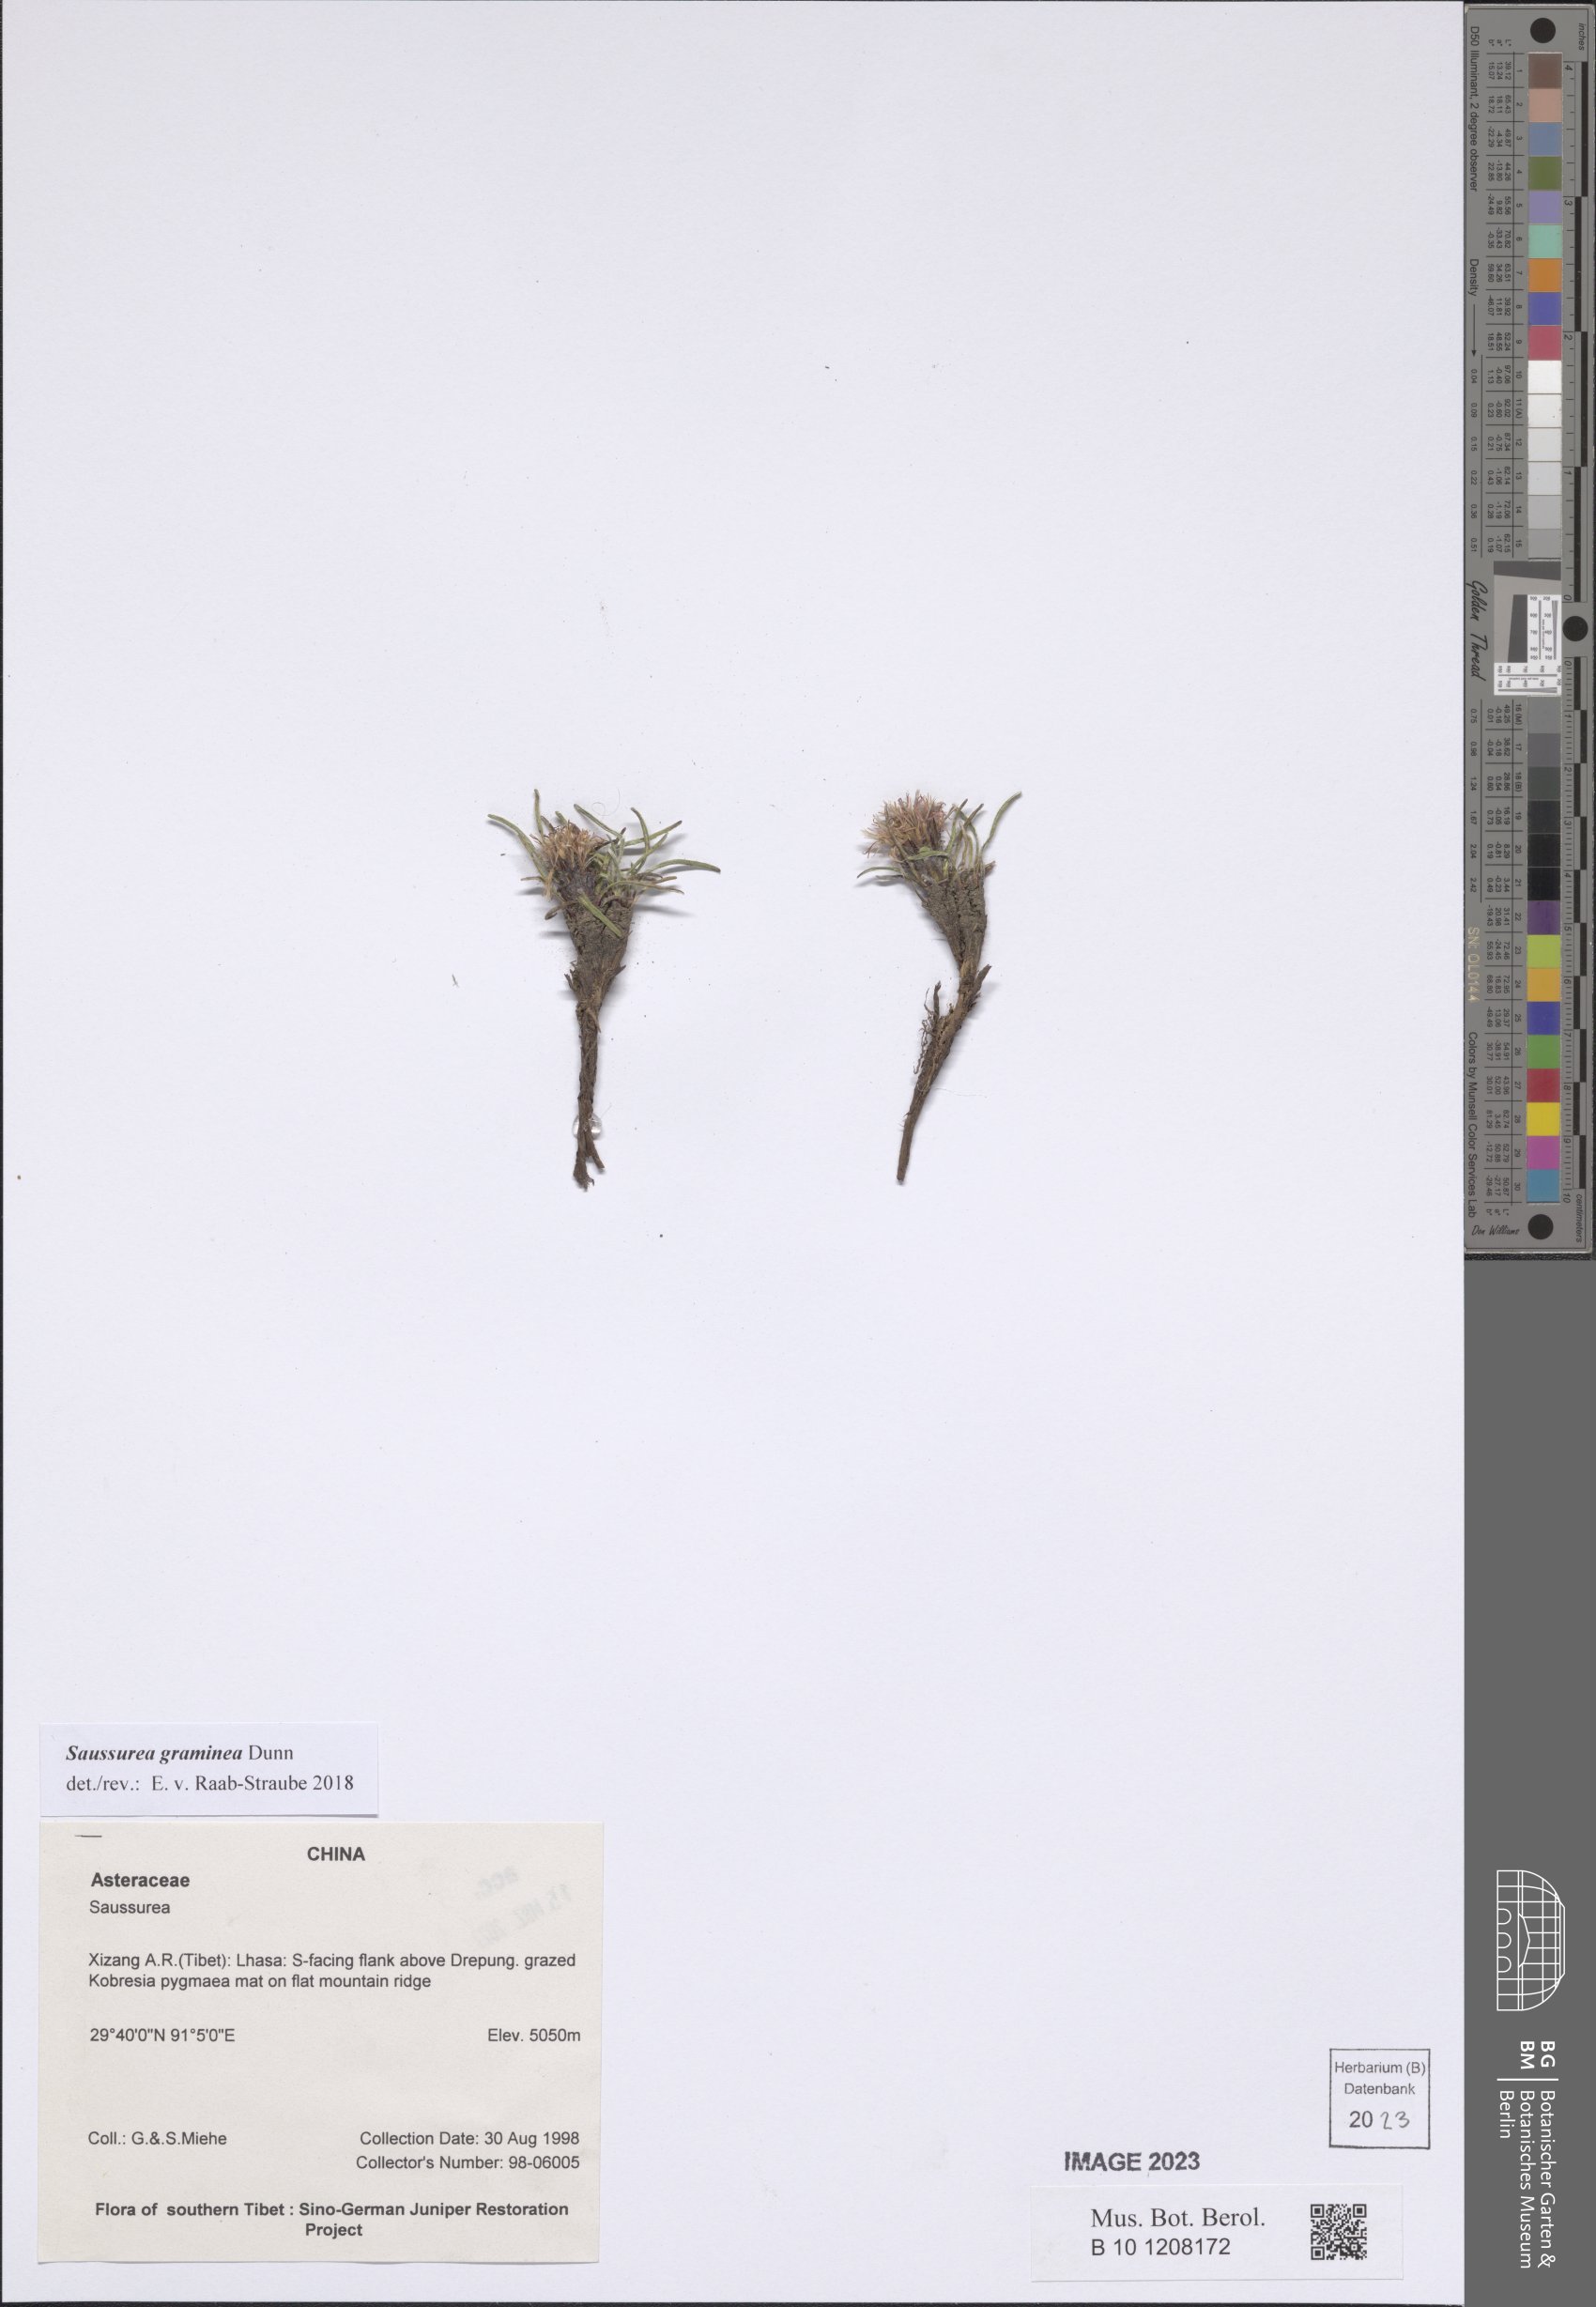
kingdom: Plantae
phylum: Tracheophyta
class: Magnoliopsida
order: Asterales
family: Asteraceae
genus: Saussurea
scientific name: Saussurea graminea
